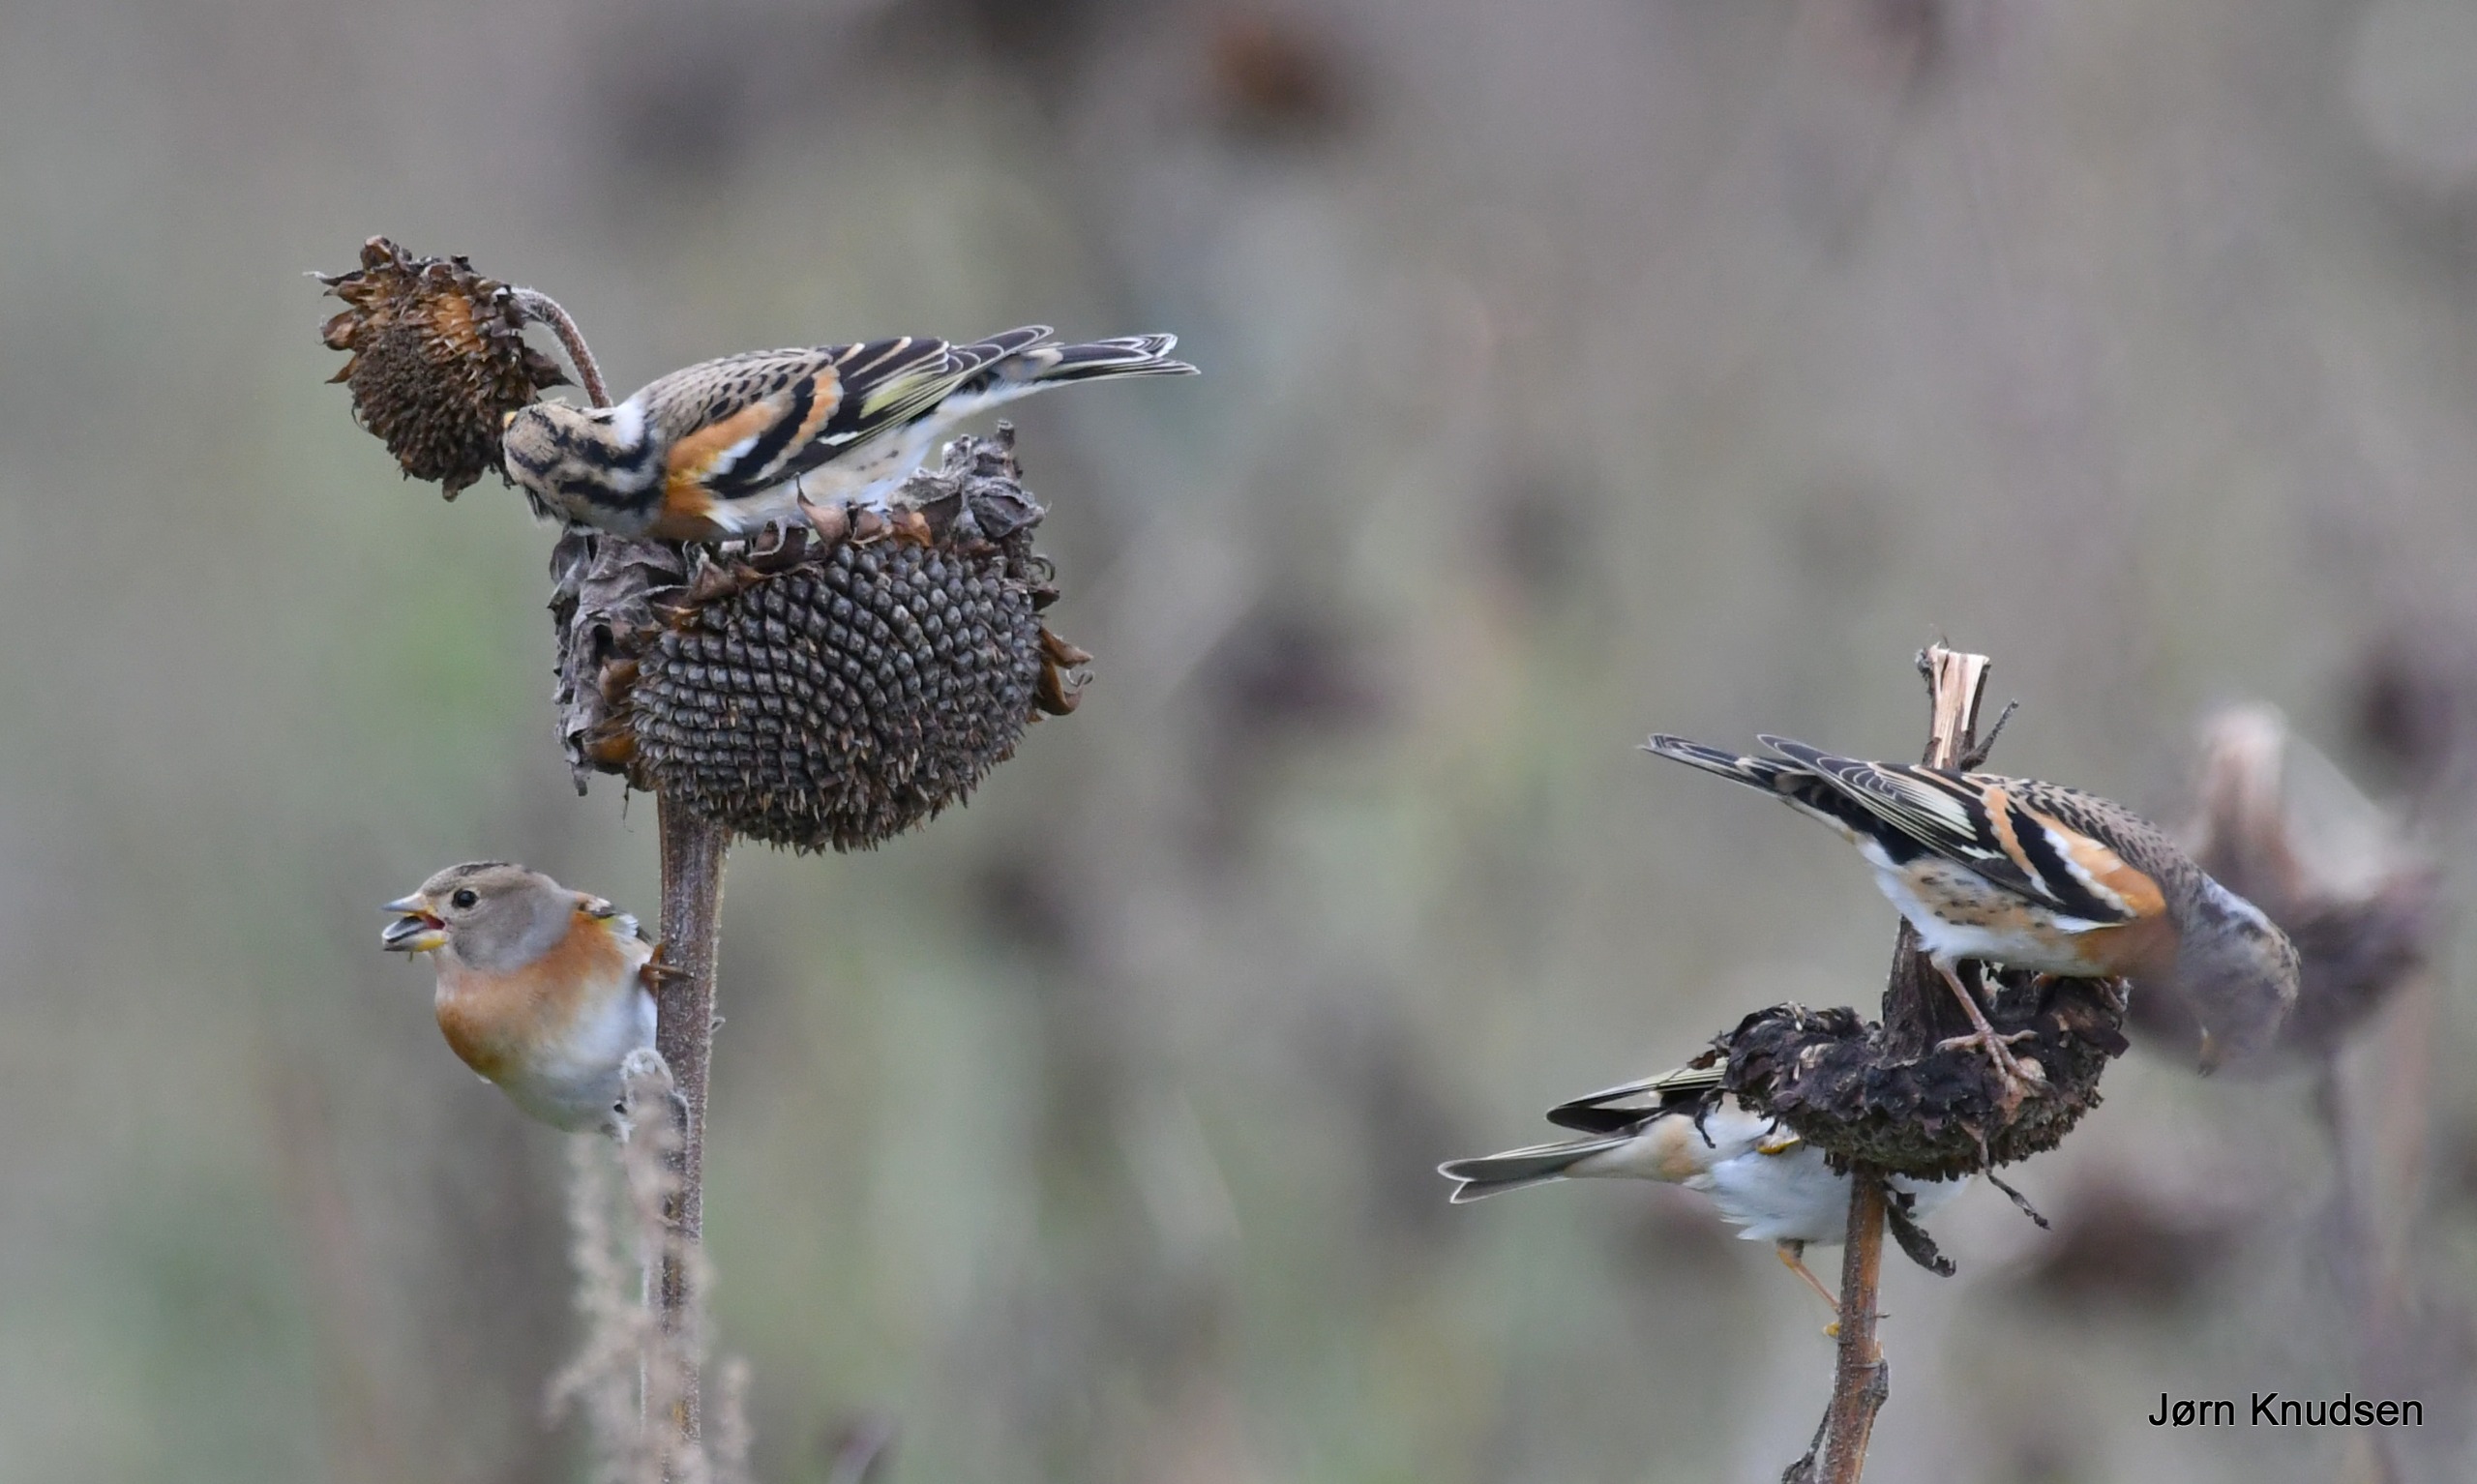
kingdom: Animalia
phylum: Chordata
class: Aves
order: Passeriformes
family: Fringillidae
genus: Fringilla
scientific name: Fringilla montifringilla
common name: Kvækerfinke
